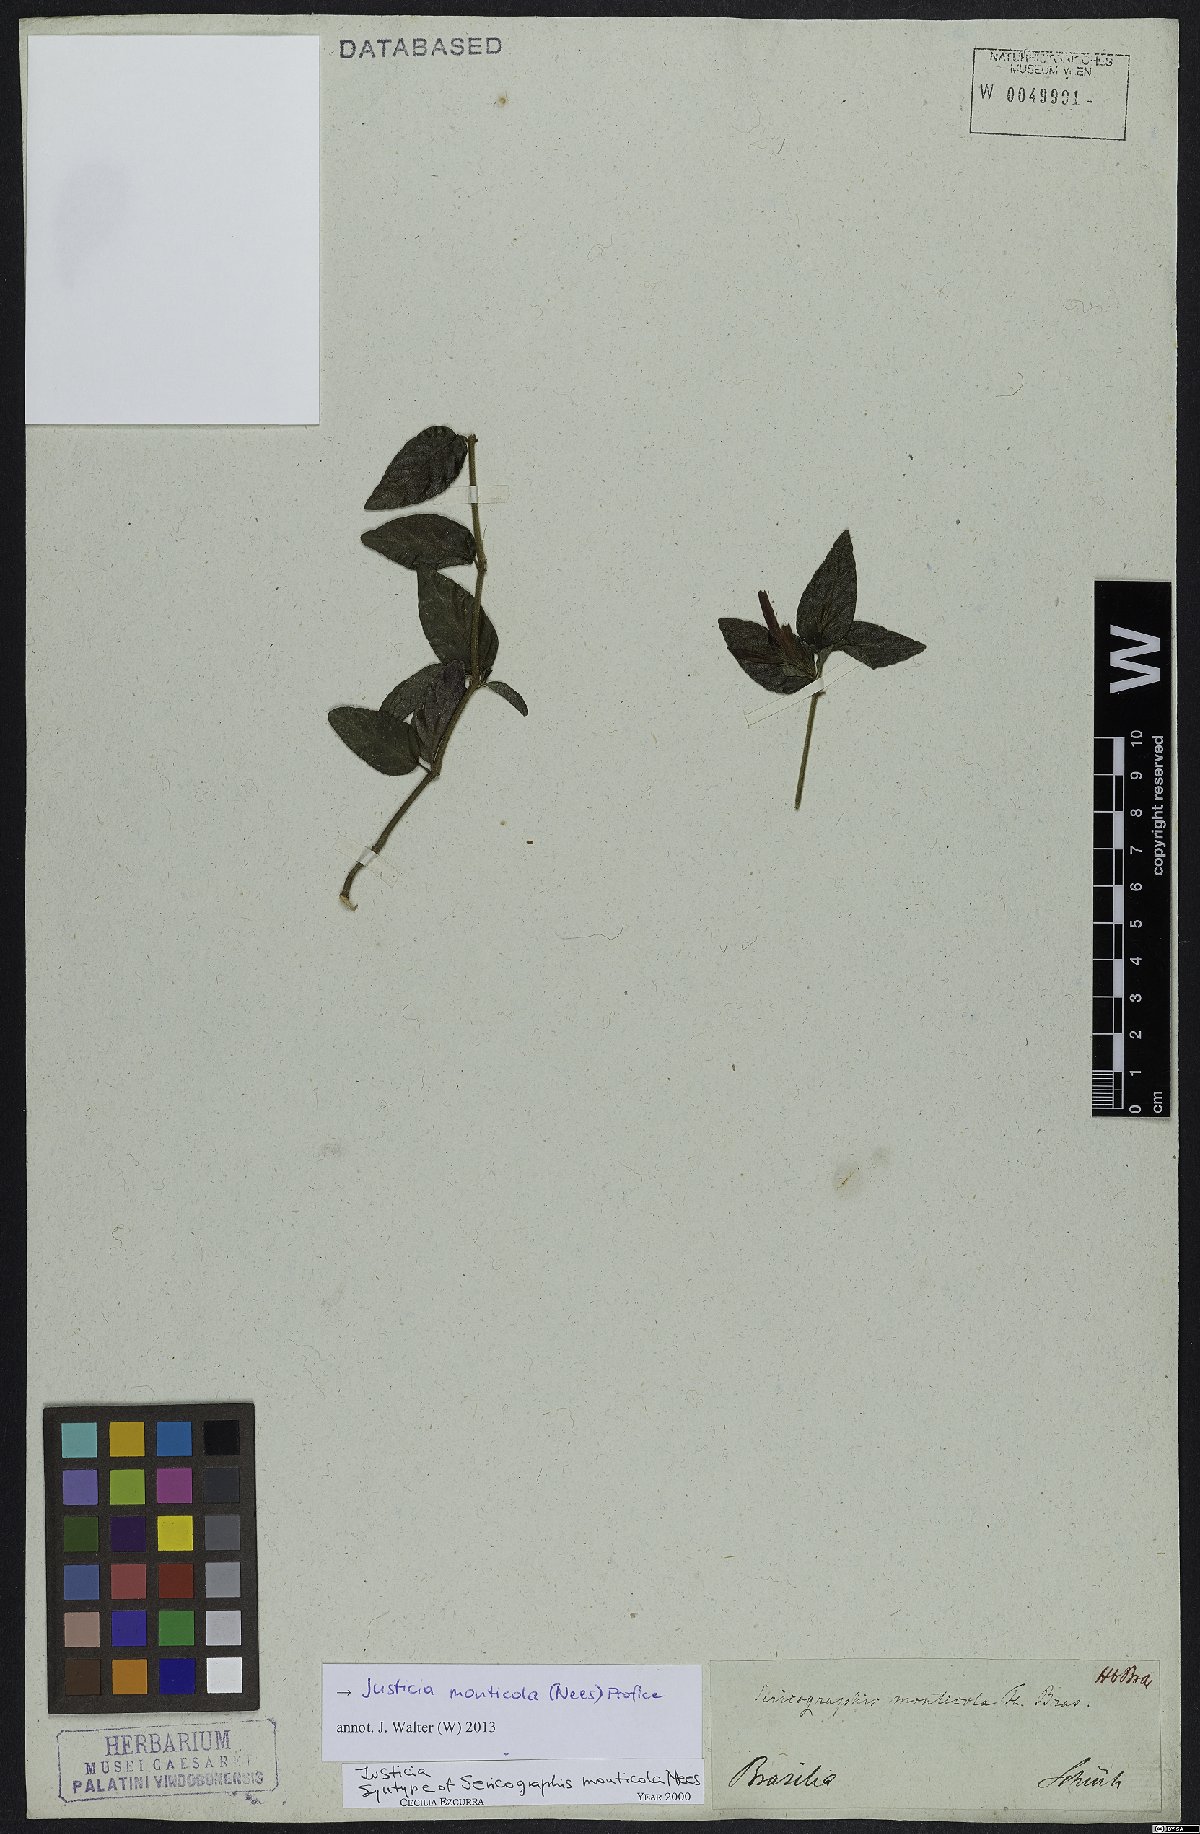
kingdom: Plantae
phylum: Tracheophyta
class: Magnoliopsida
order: Lamiales
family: Acanthaceae
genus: Justicia
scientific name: Justicia monticola
